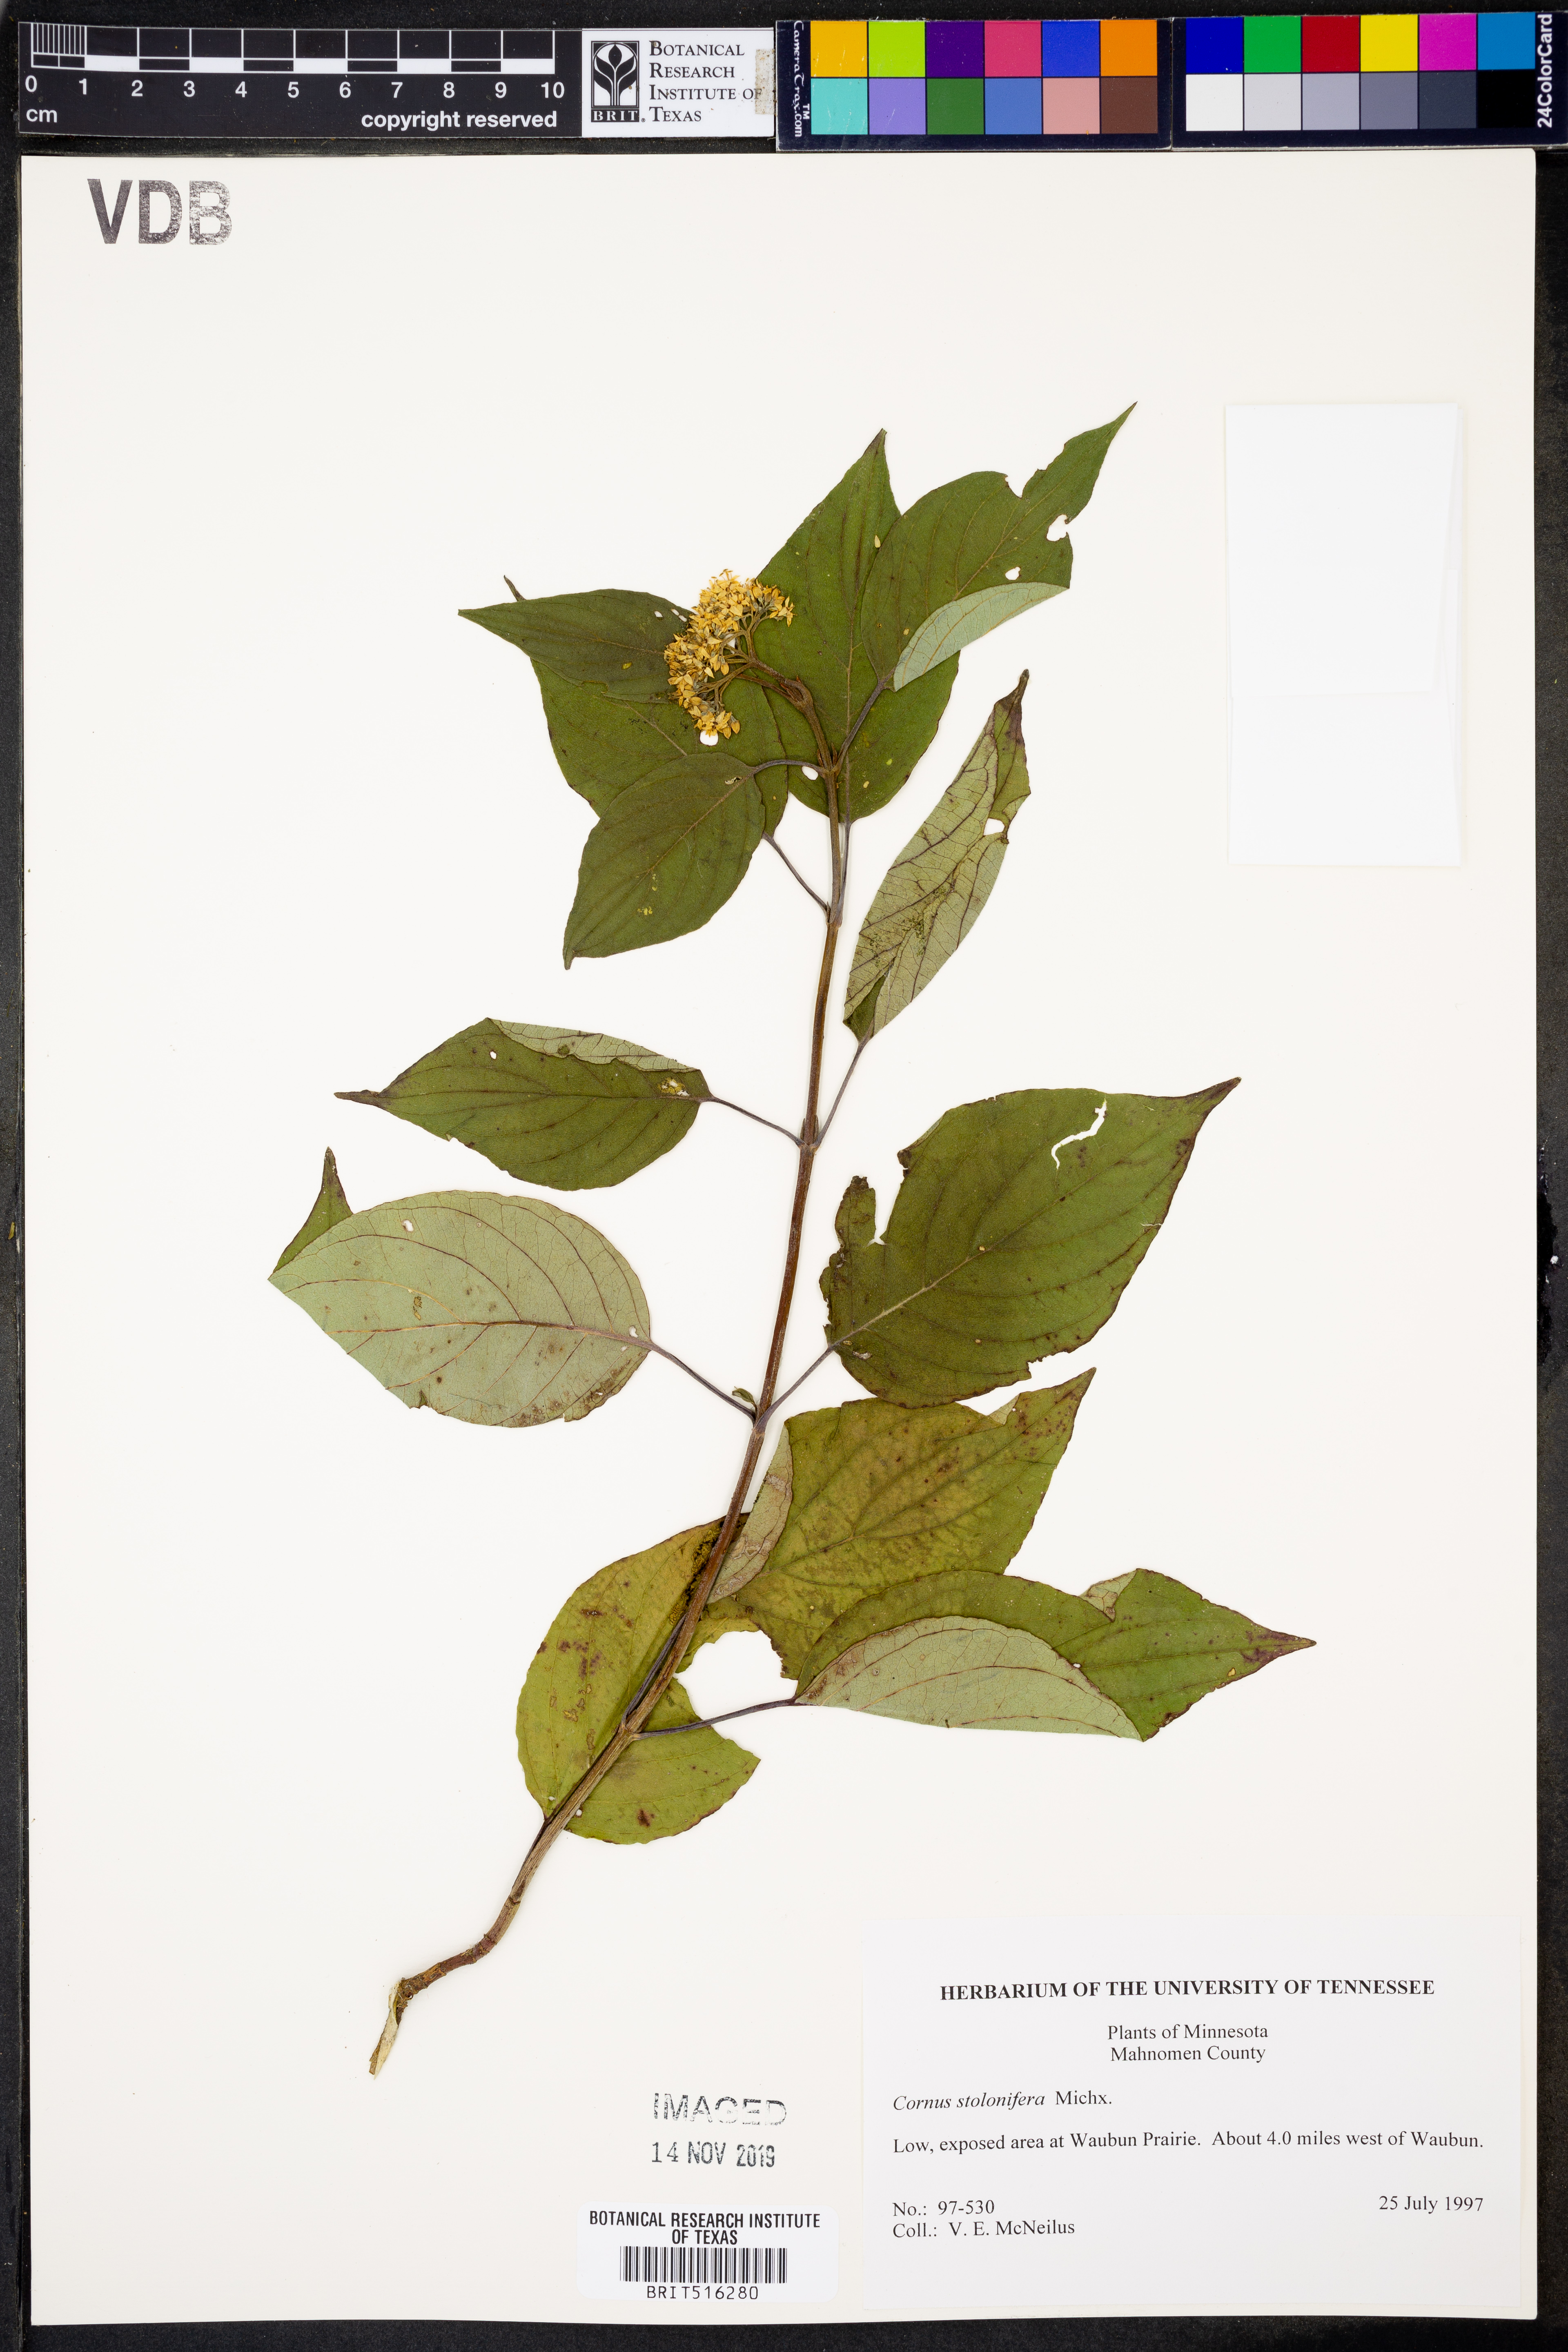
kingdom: Plantae
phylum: Tracheophyta
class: Magnoliopsida
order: Cornales
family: Cornaceae
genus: Cornus
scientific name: Cornus sericea
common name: Red-osier dogwood
